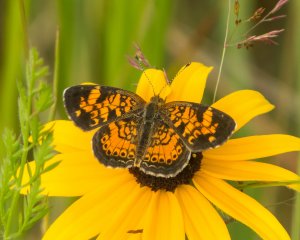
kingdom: Animalia
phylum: Arthropoda
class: Insecta
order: Lepidoptera
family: Nymphalidae
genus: Phyciodes
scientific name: Phyciodes tharos
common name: Northern Crescent
